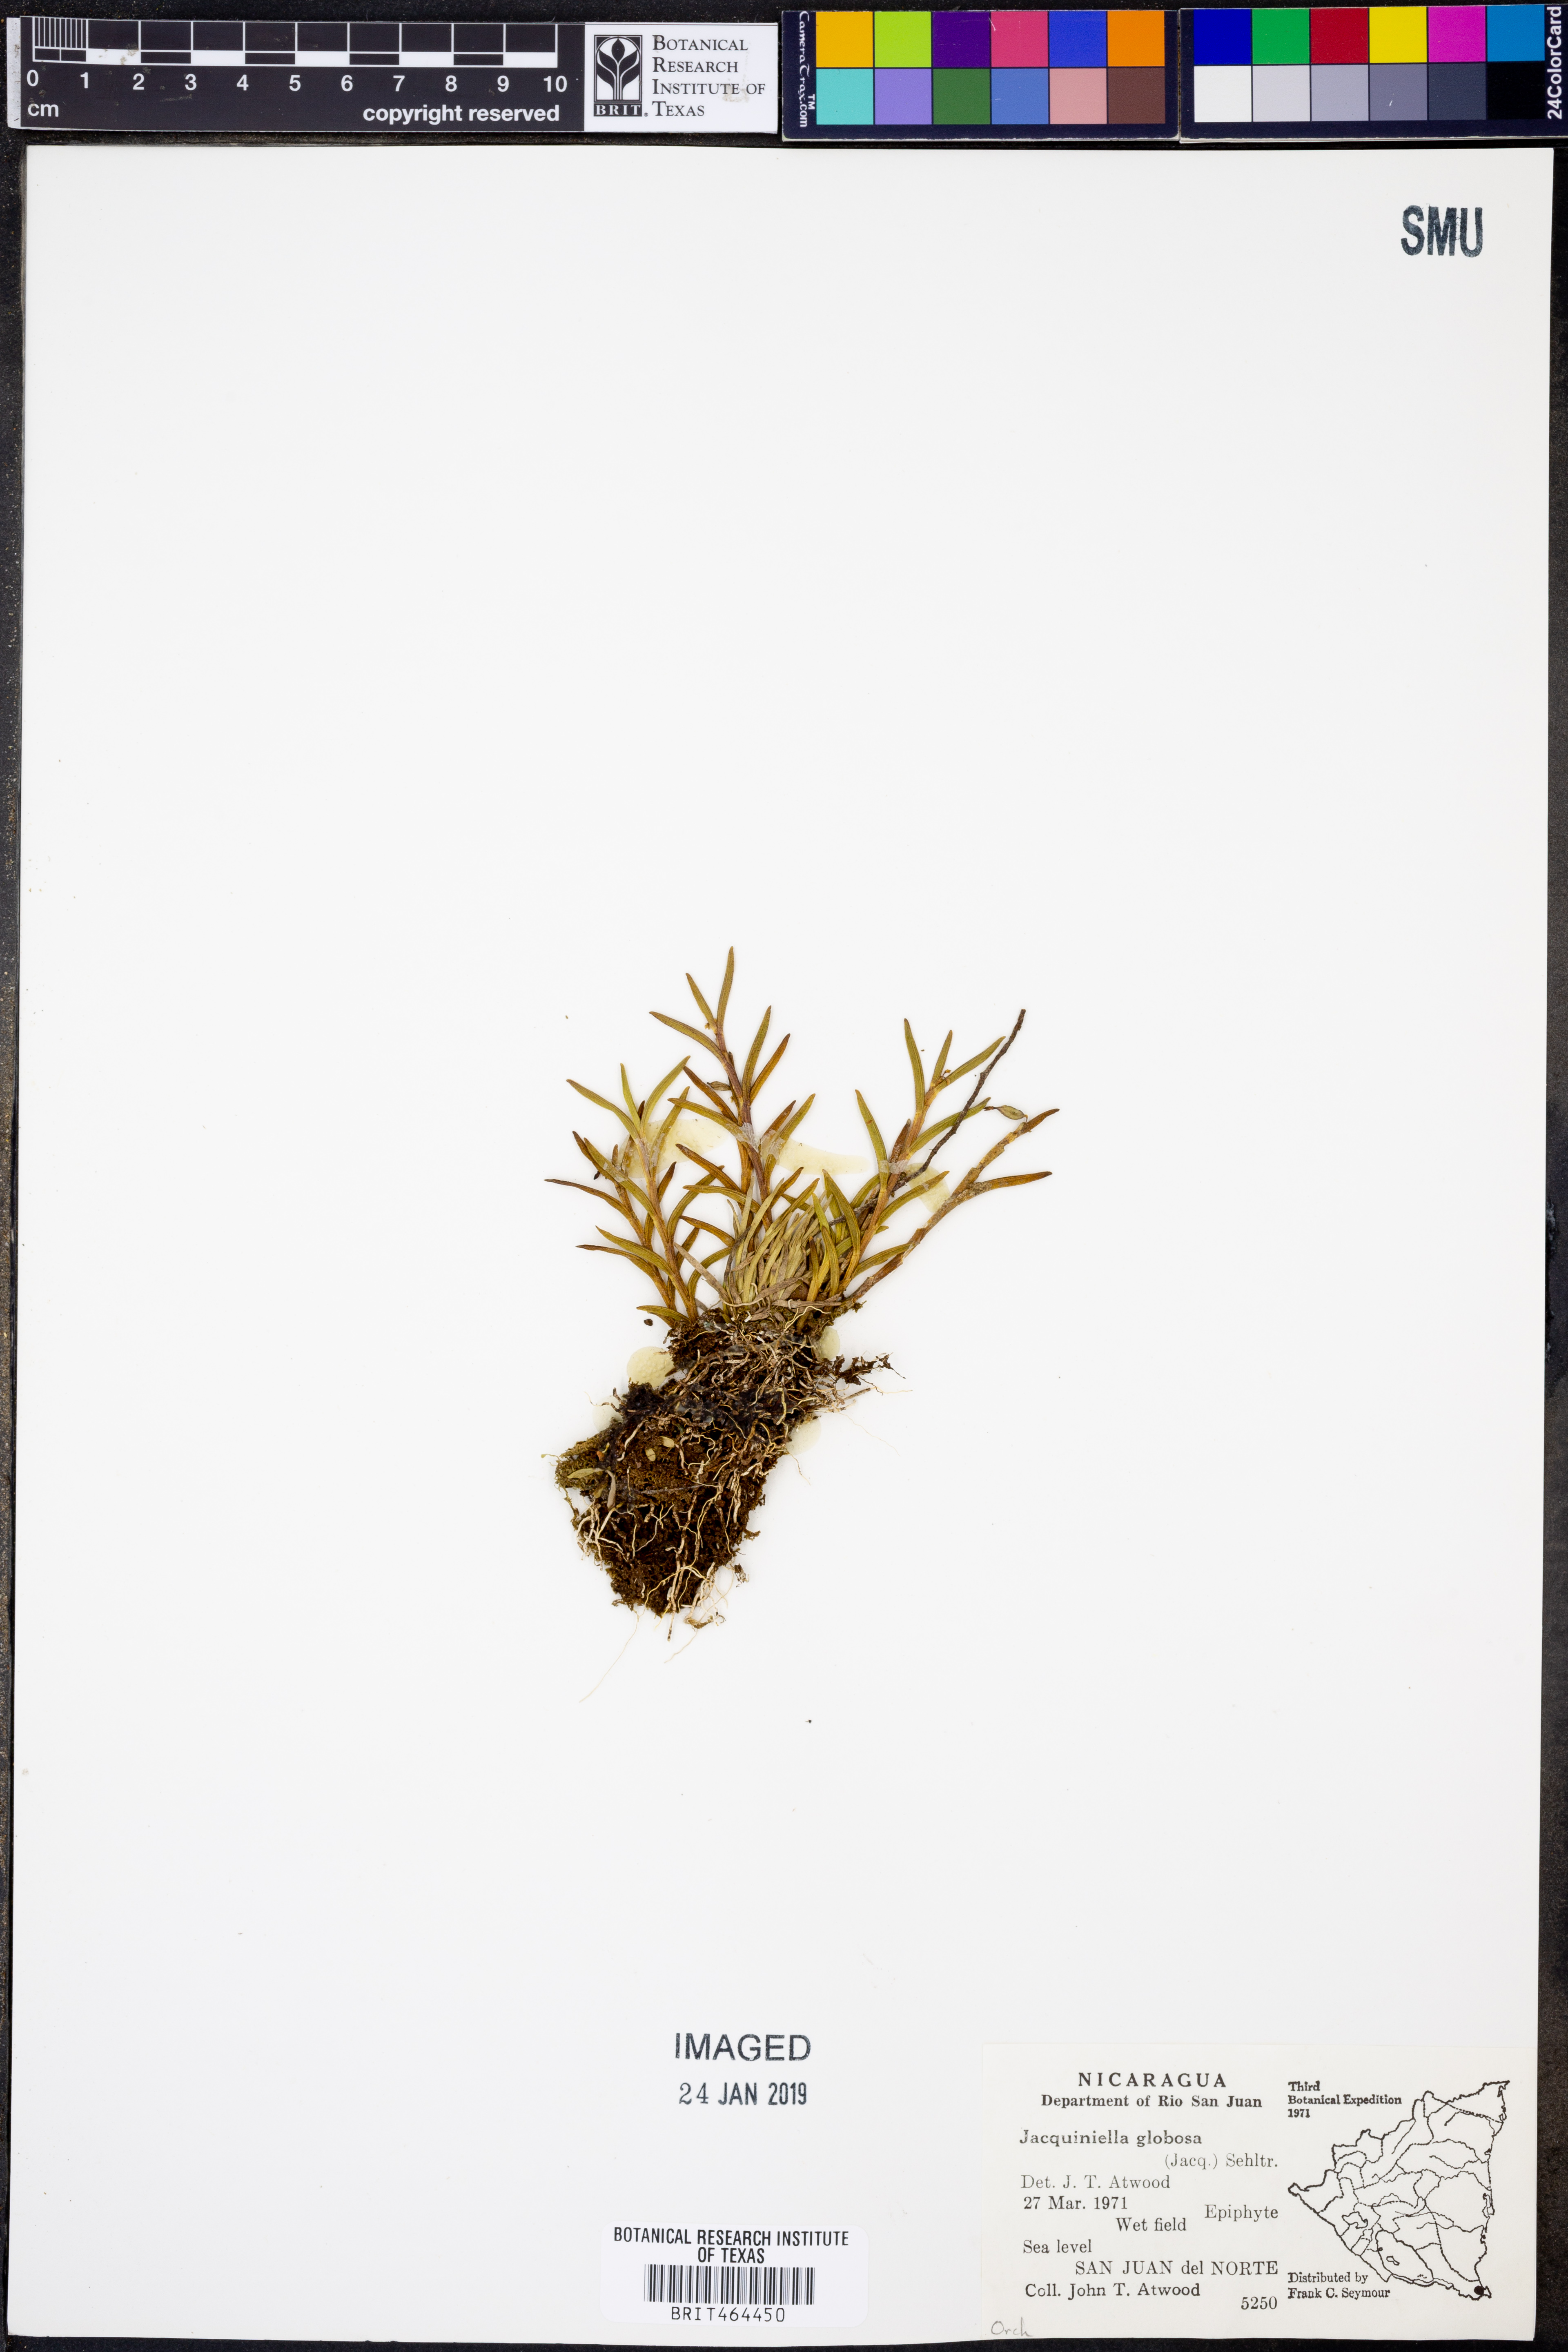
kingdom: Plantae
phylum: Tracheophyta
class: Liliopsida
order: Asparagales
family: Orchidaceae
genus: Jacquiniella
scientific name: Jacquiniella globosa
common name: Redblotch tufted orchid
